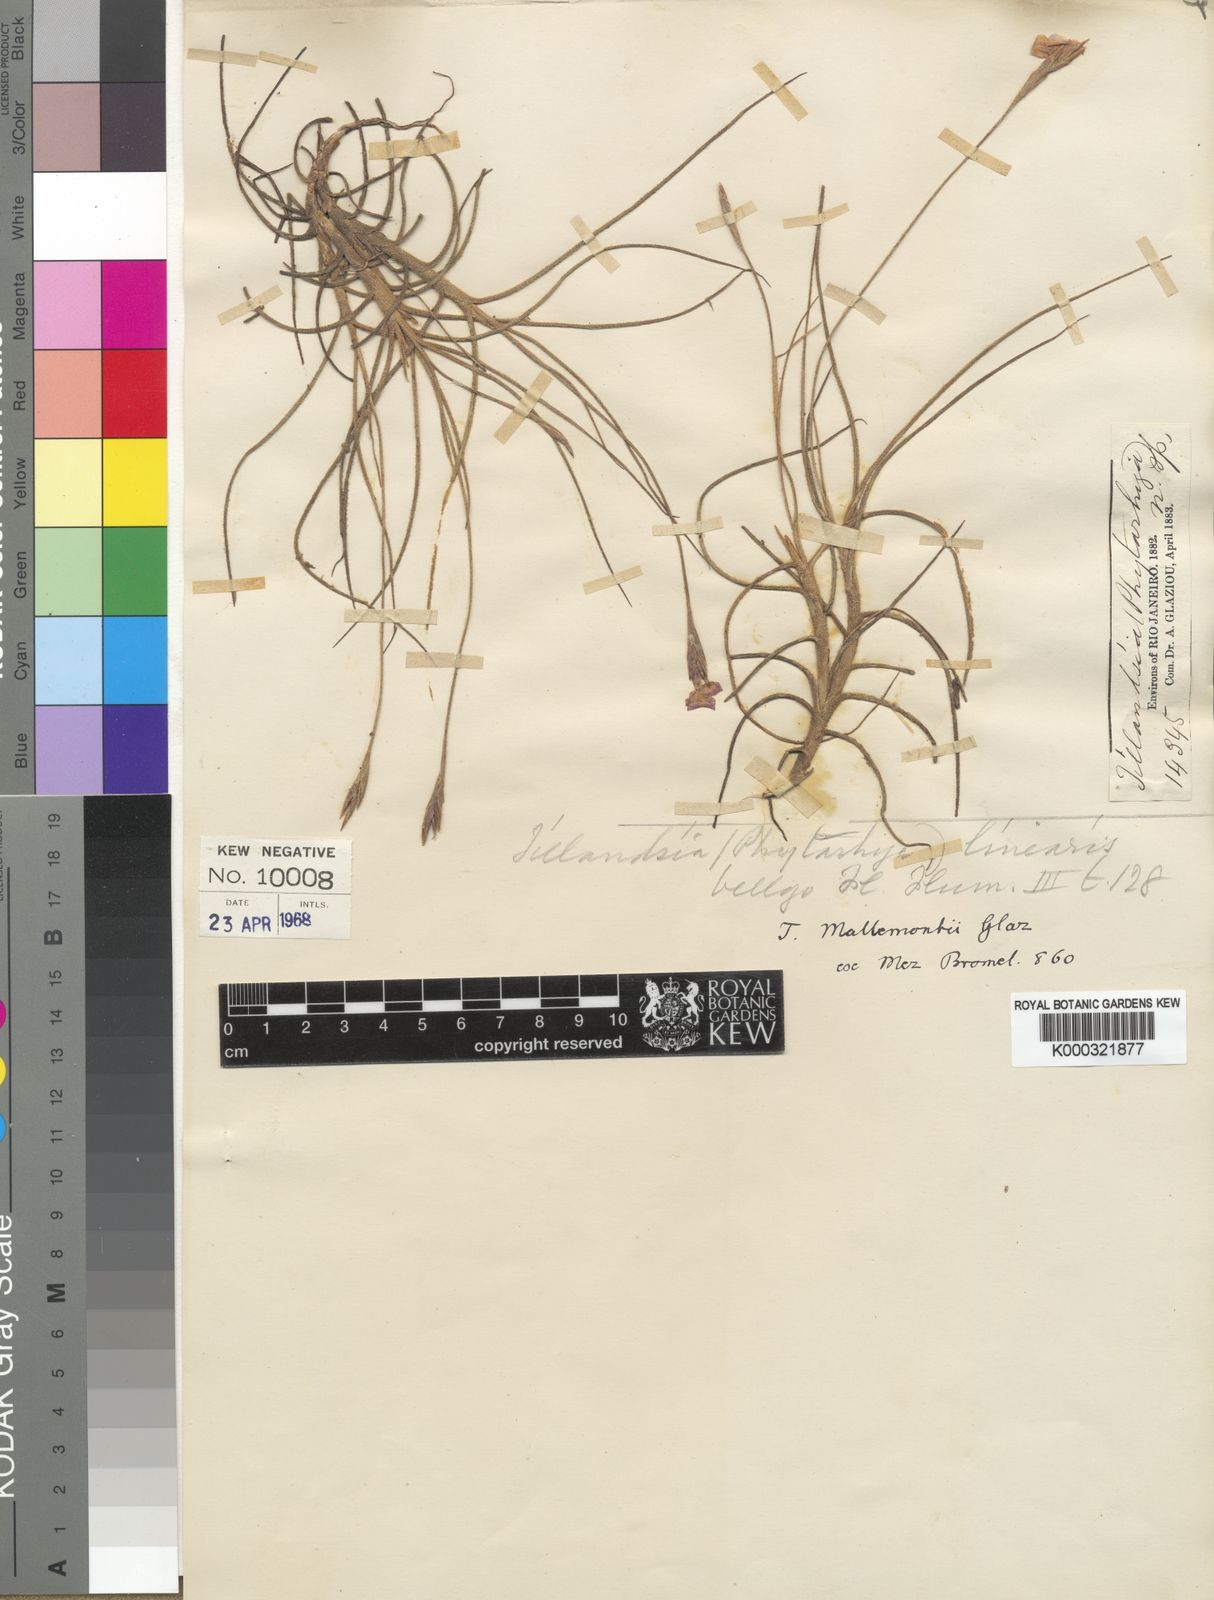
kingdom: Plantae
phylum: Tracheophyta
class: Liliopsida
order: Poales
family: Bromeliaceae
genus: Tillandsia
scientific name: Tillandsia mallemontii
